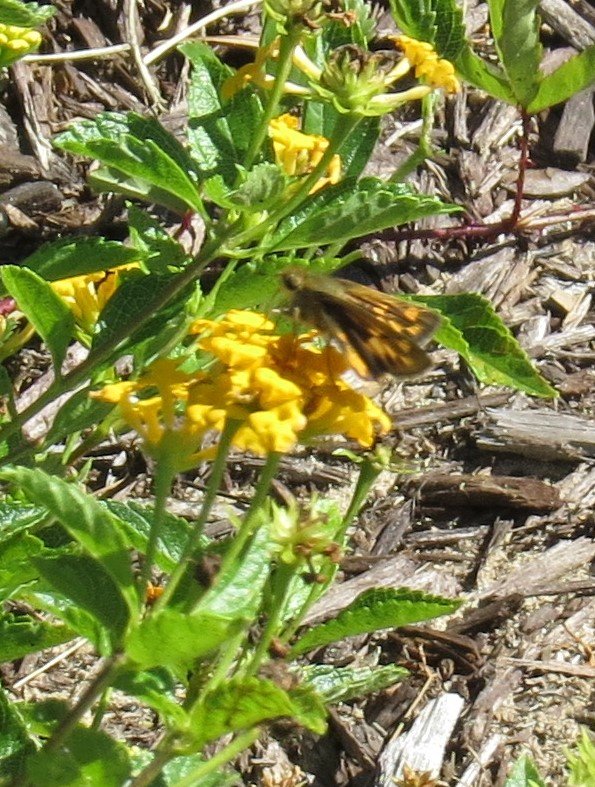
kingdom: Animalia
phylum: Arthropoda
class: Insecta
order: Lepidoptera
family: Hesperiidae
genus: Hylephila
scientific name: Hylephila phyleus
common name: Fiery Skipper
